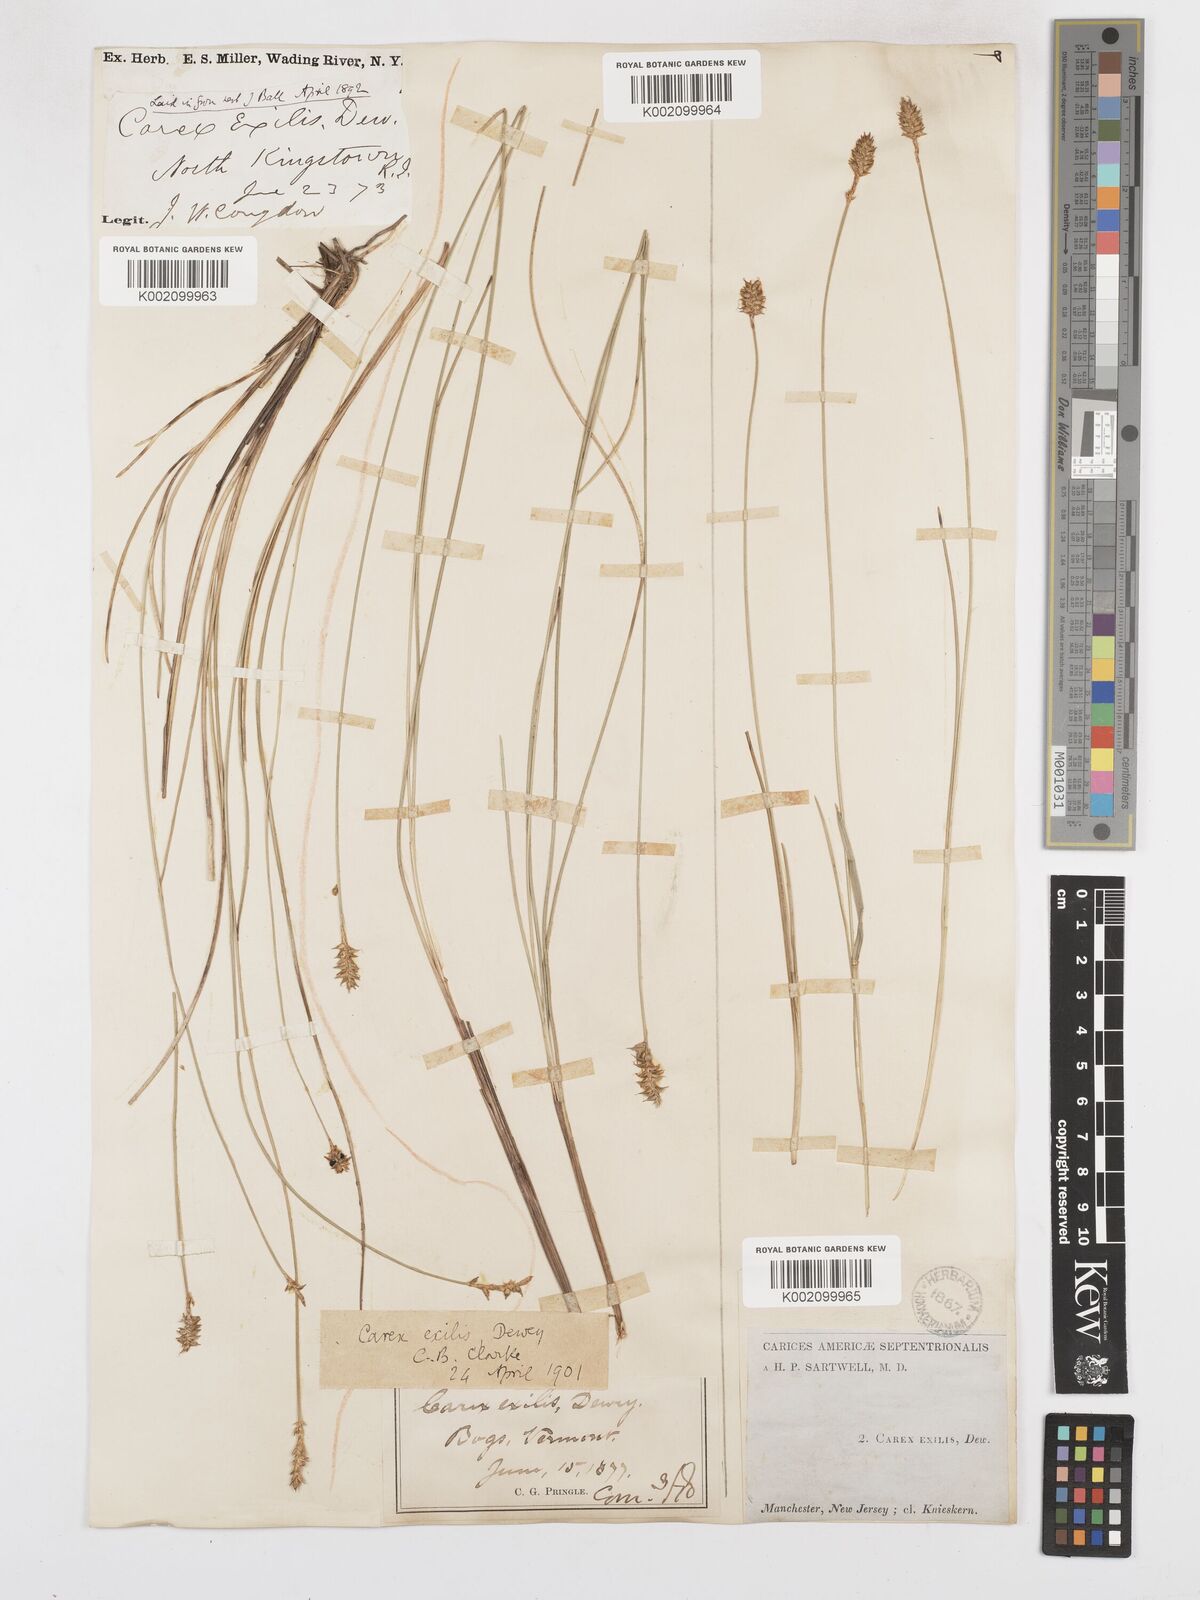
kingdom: Plantae
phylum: Tracheophyta
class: Liliopsida
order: Poales
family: Cyperaceae
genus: Carex
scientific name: Carex exilis
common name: Coastal sedge
